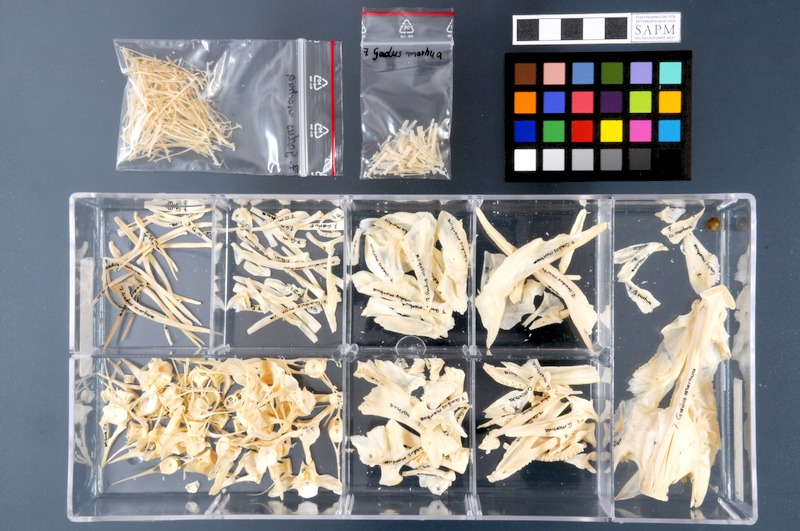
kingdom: Animalia
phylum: Chordata
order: Gadiformes
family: Gadidae
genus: Gadus
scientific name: Gadus morhua
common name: Atlantic cod
